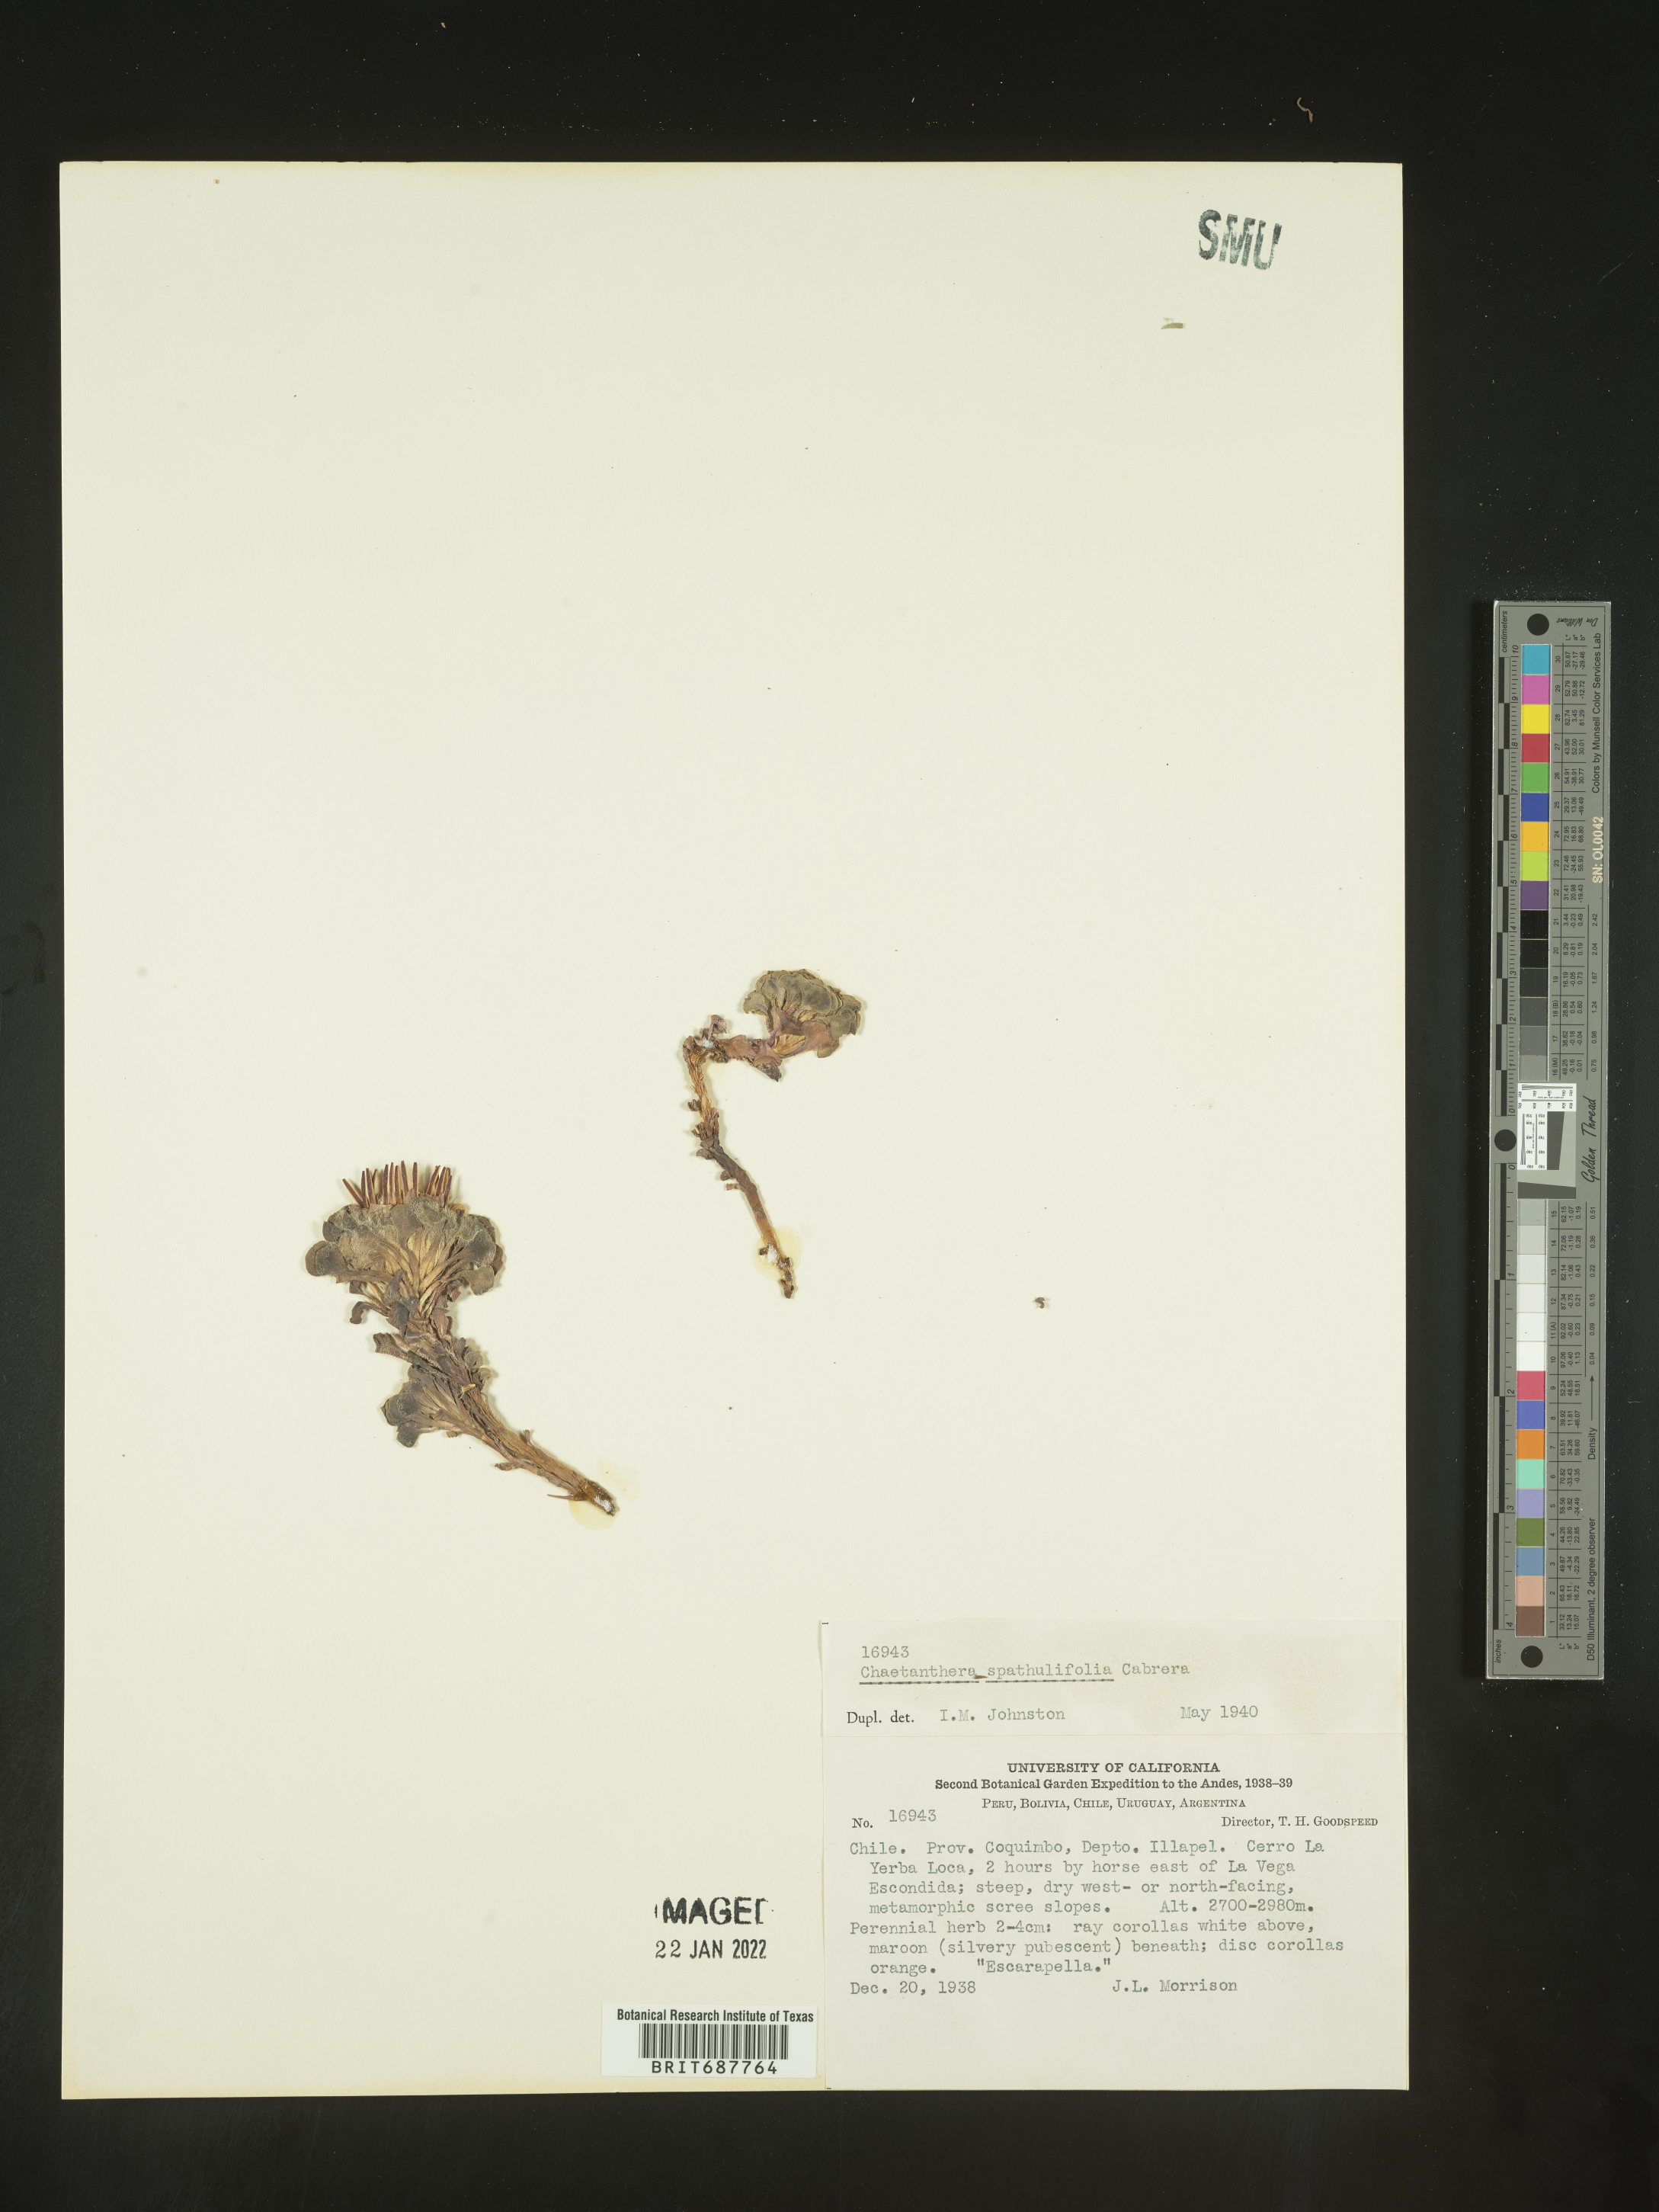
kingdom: Plantae
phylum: Tracheophyta
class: Magnoliopsida
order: Asterales
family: Asteraceae
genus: Chaetanthera
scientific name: Chaetanthera
